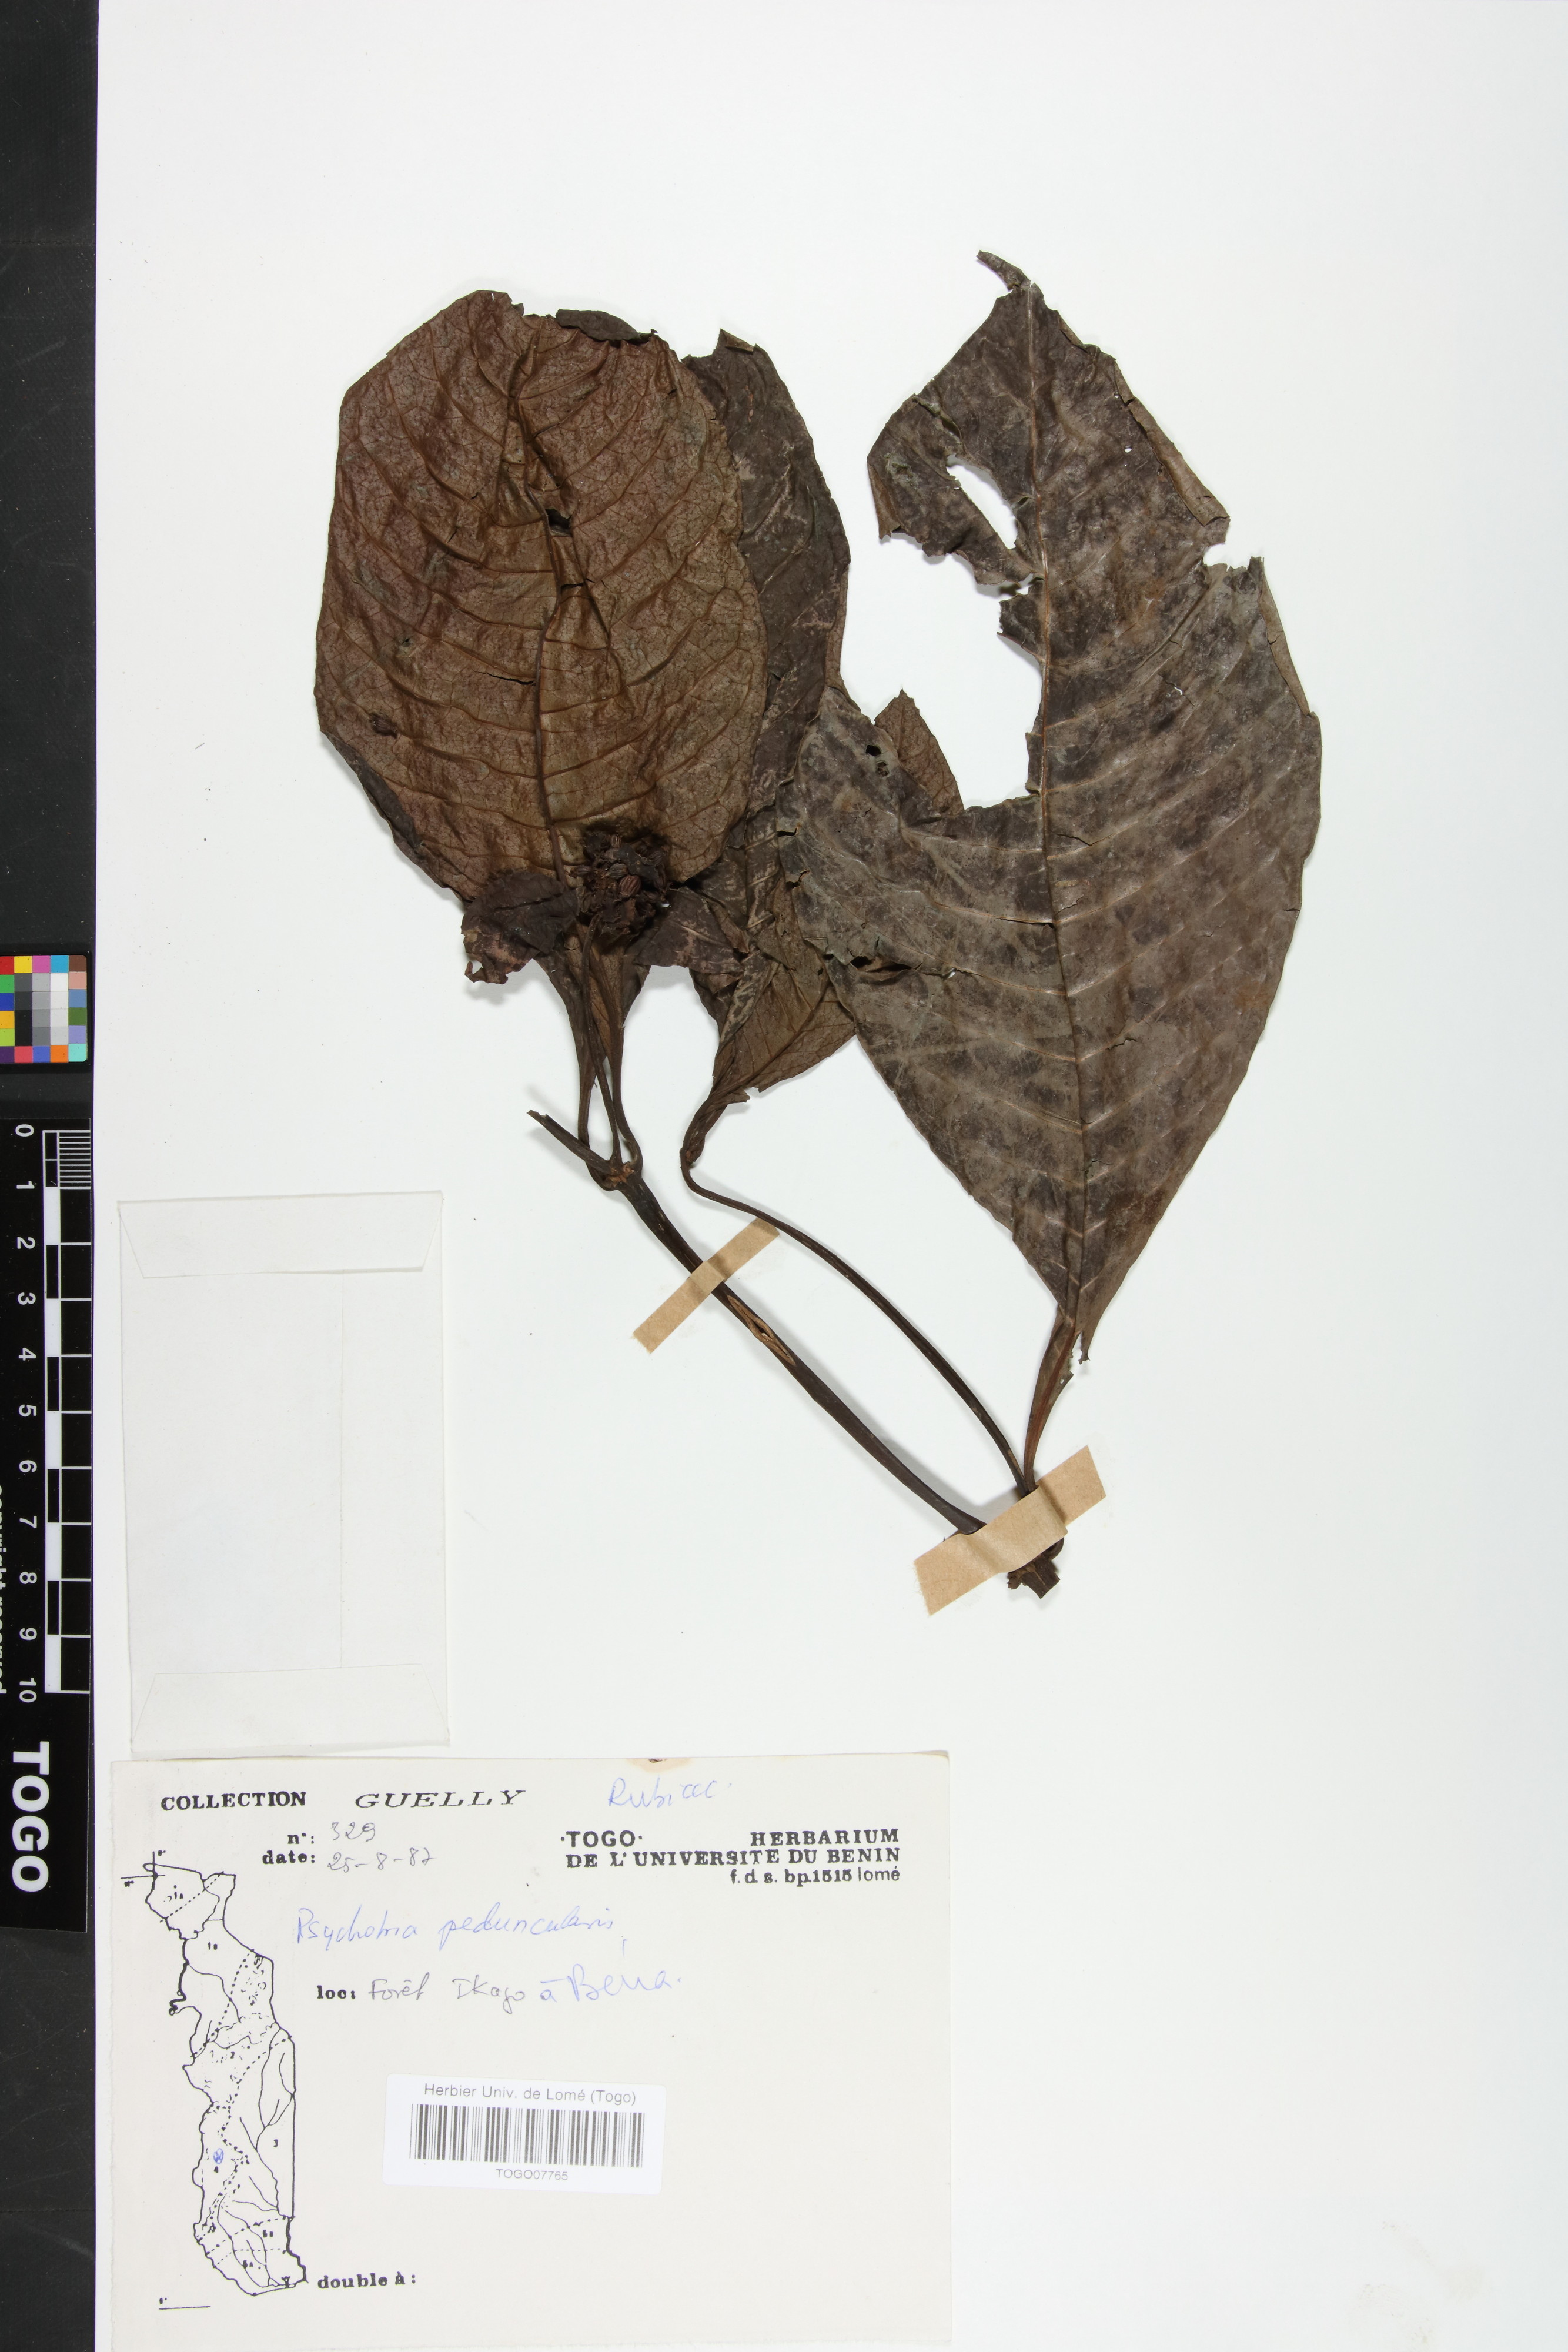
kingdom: Plantae
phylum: Tracheophyta
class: Magnoliopsida
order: Gentianales
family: Rubiaceae
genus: Psychotria
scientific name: Psychotria peduncularis
